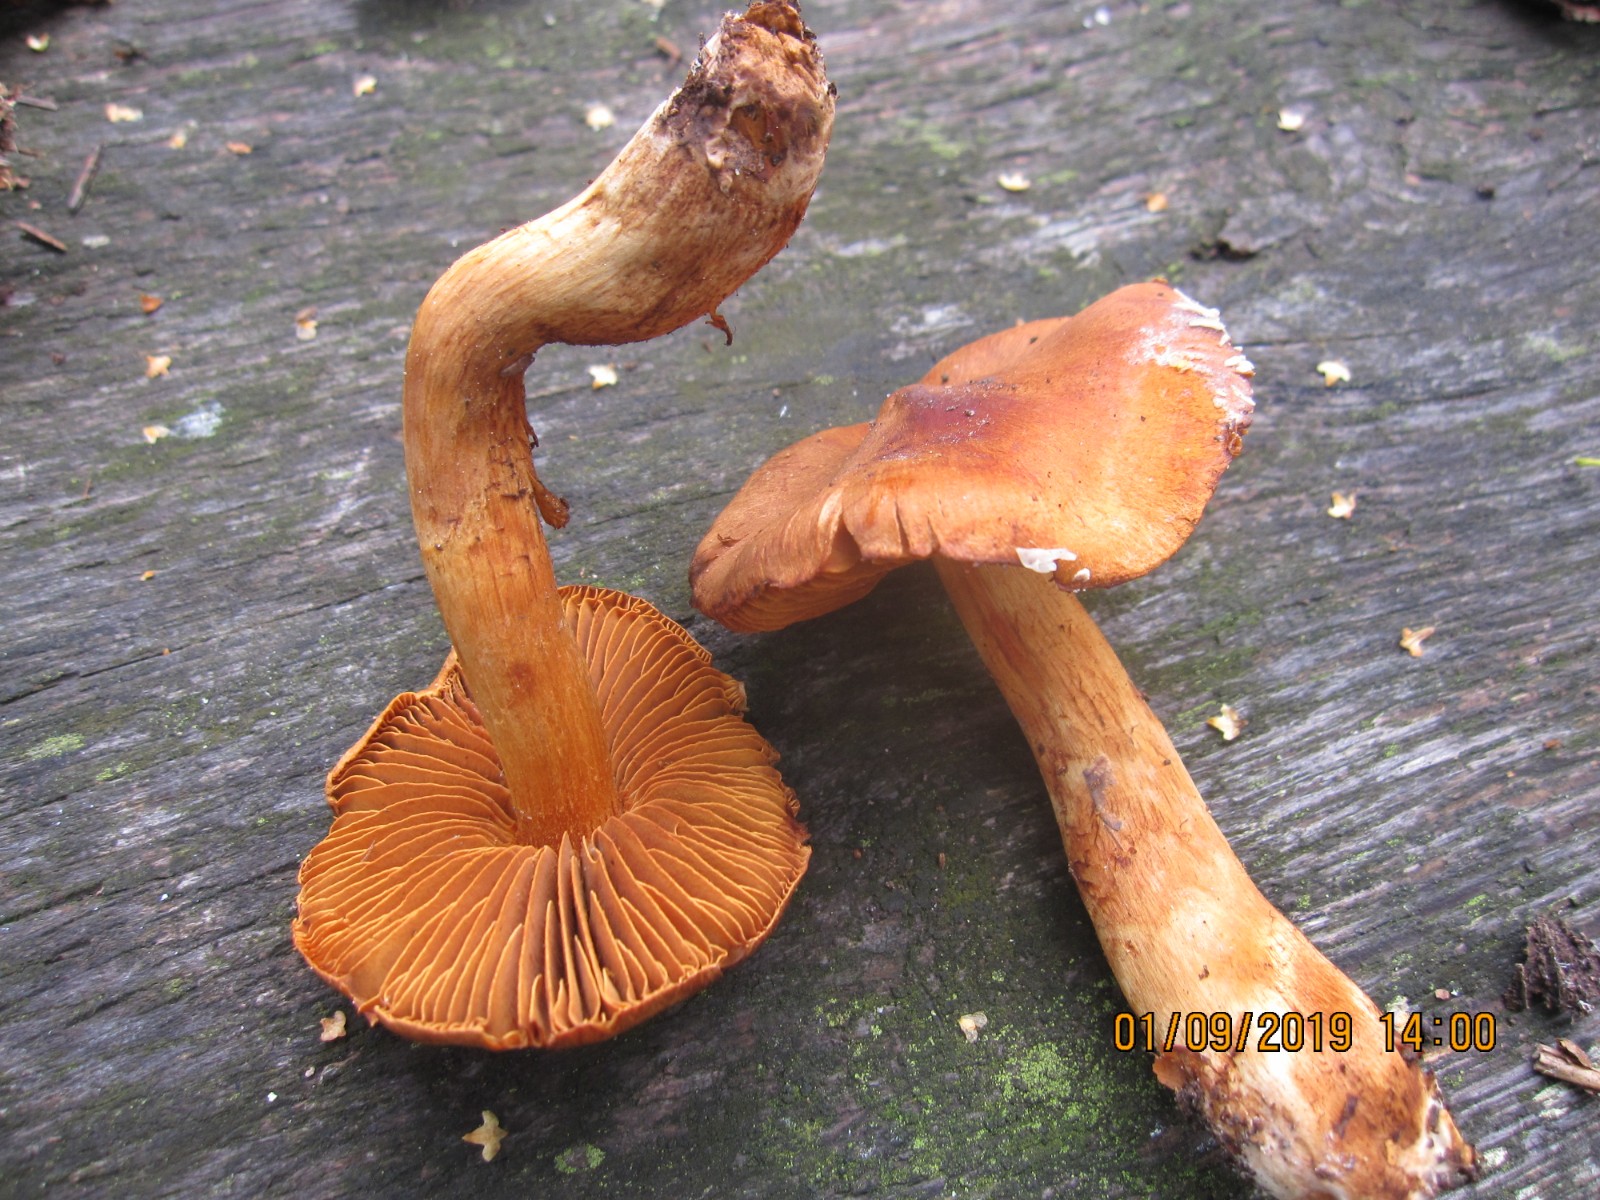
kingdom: Fungi
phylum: Basidiomycota
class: Agaricomycetes
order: Agaricales
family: Cortinariaceae
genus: Cortinarius
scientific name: Cortinarius rubellus
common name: puklet gift-slørhat
